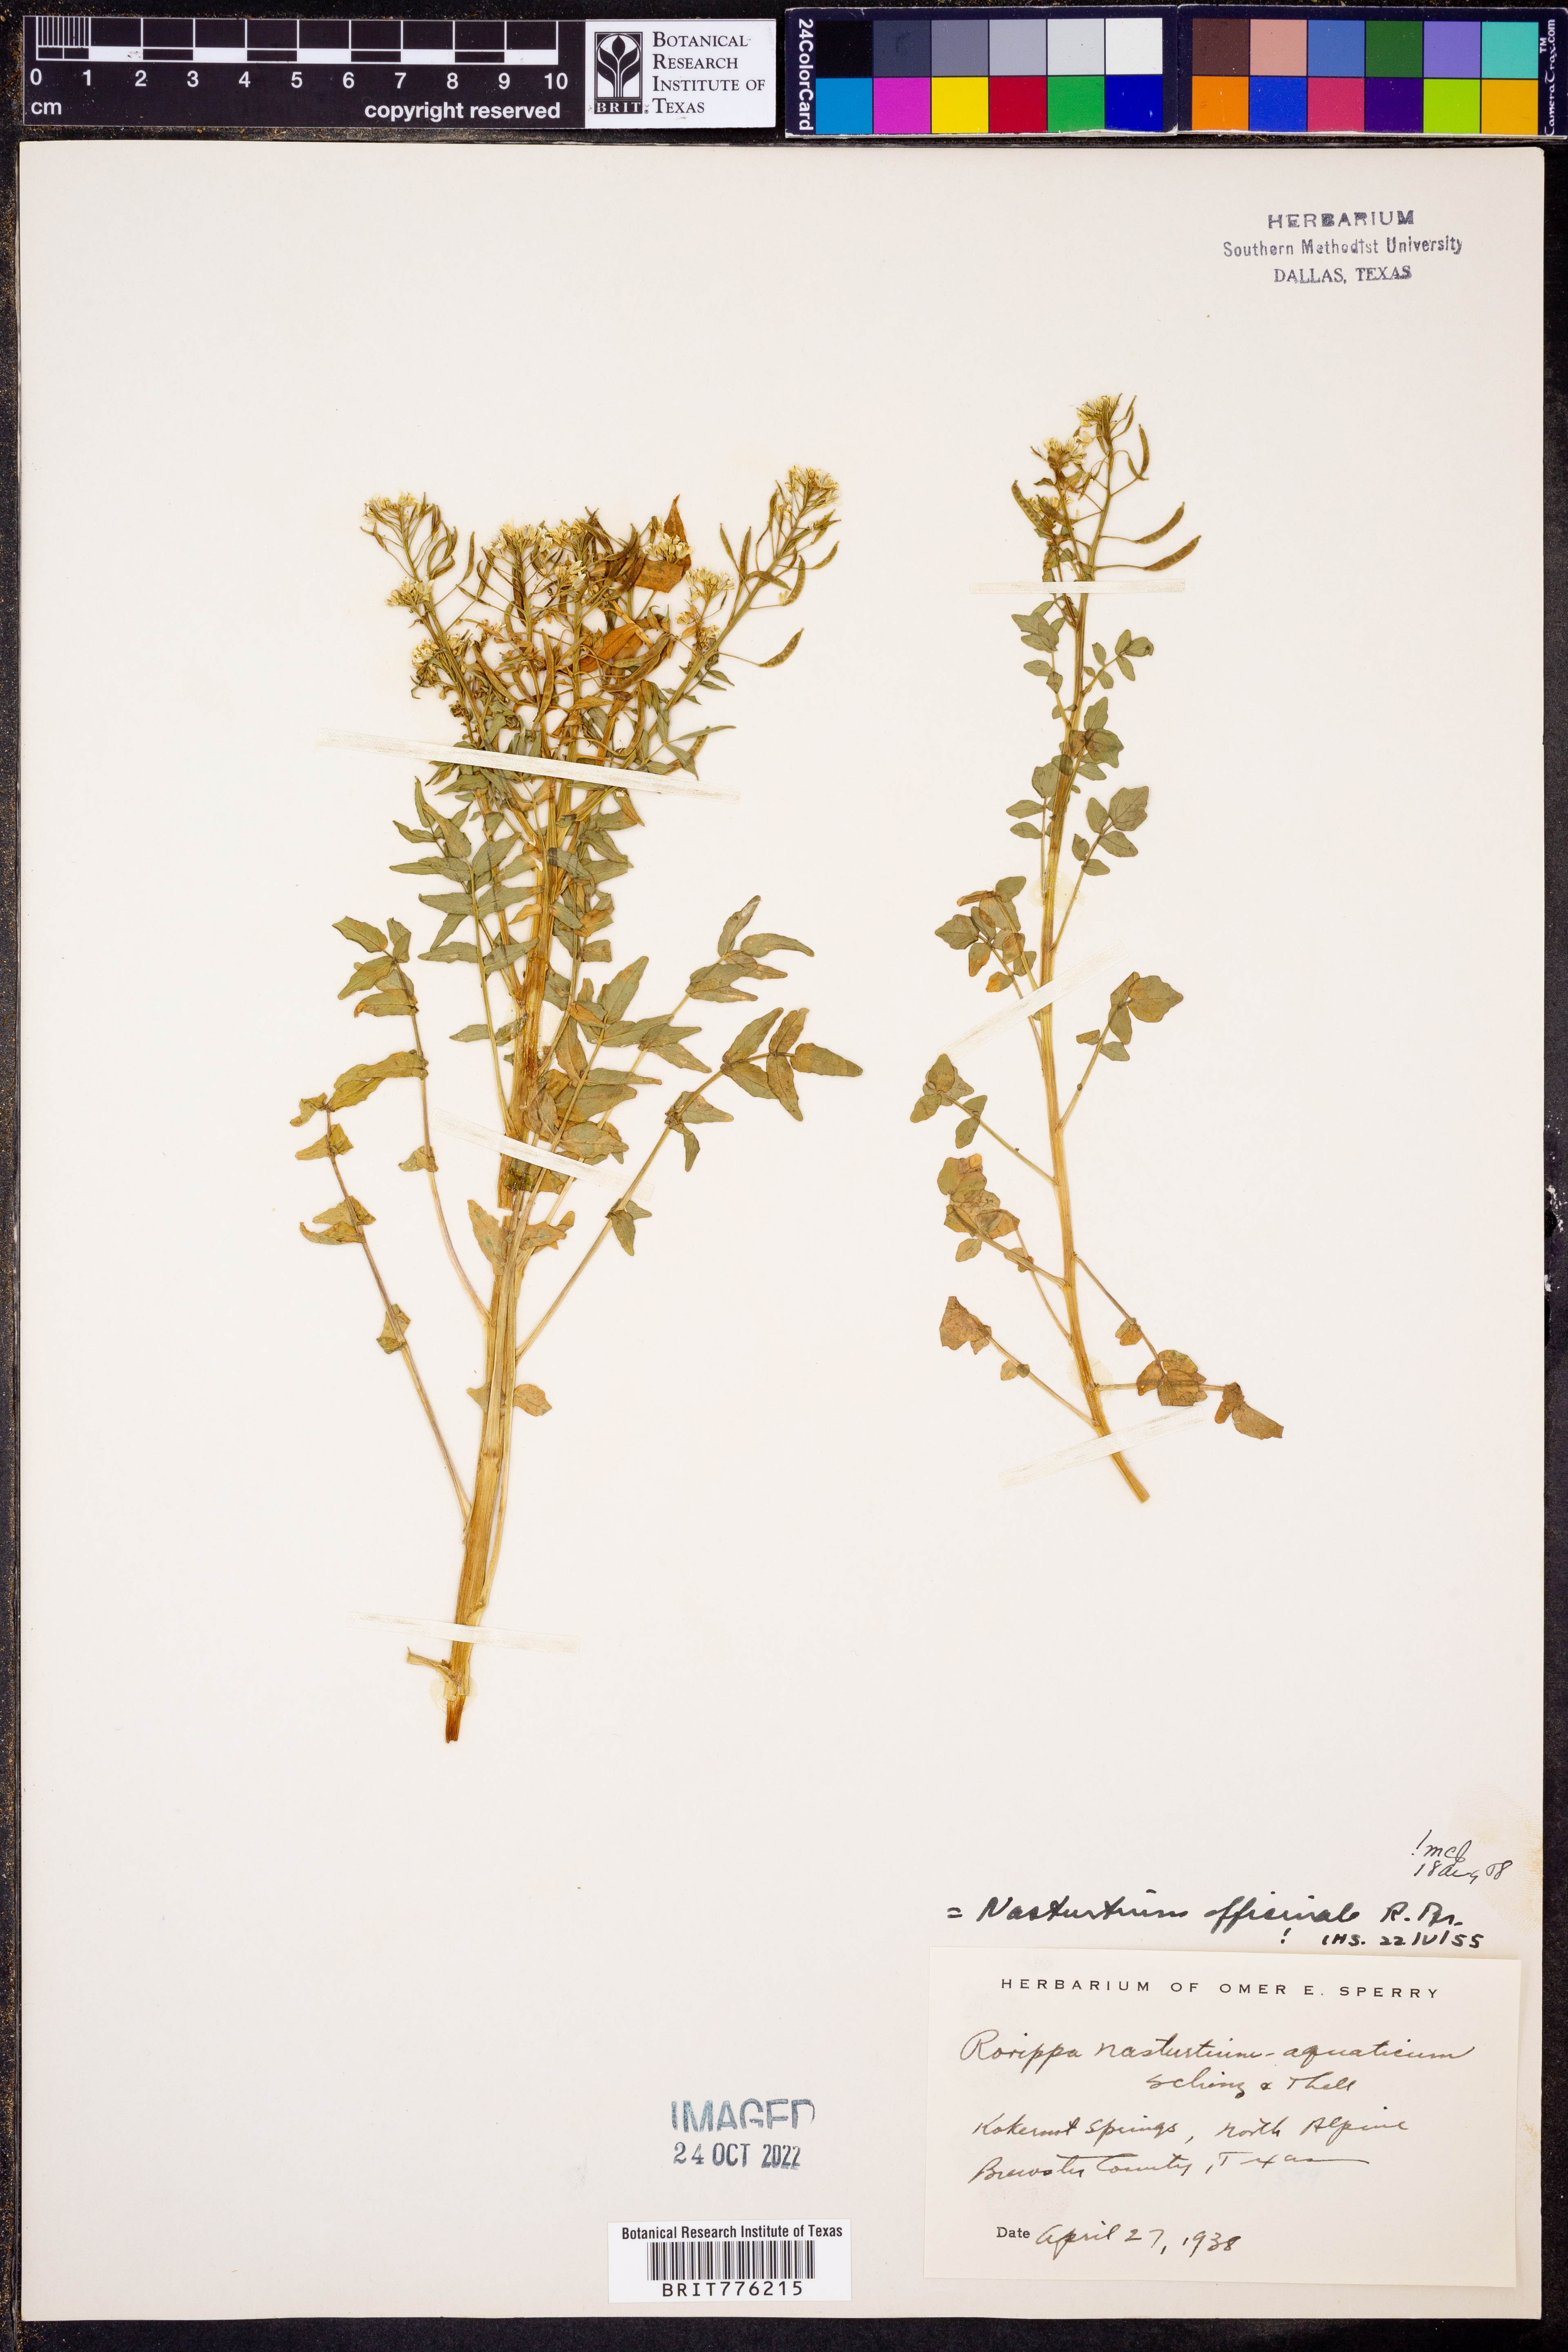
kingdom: Plantae
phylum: Tracheophyta
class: Magnoliopsida
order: Brassicales
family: Brassicaceae
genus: Nasturtium
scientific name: Nasturtium officinale
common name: Watercress
